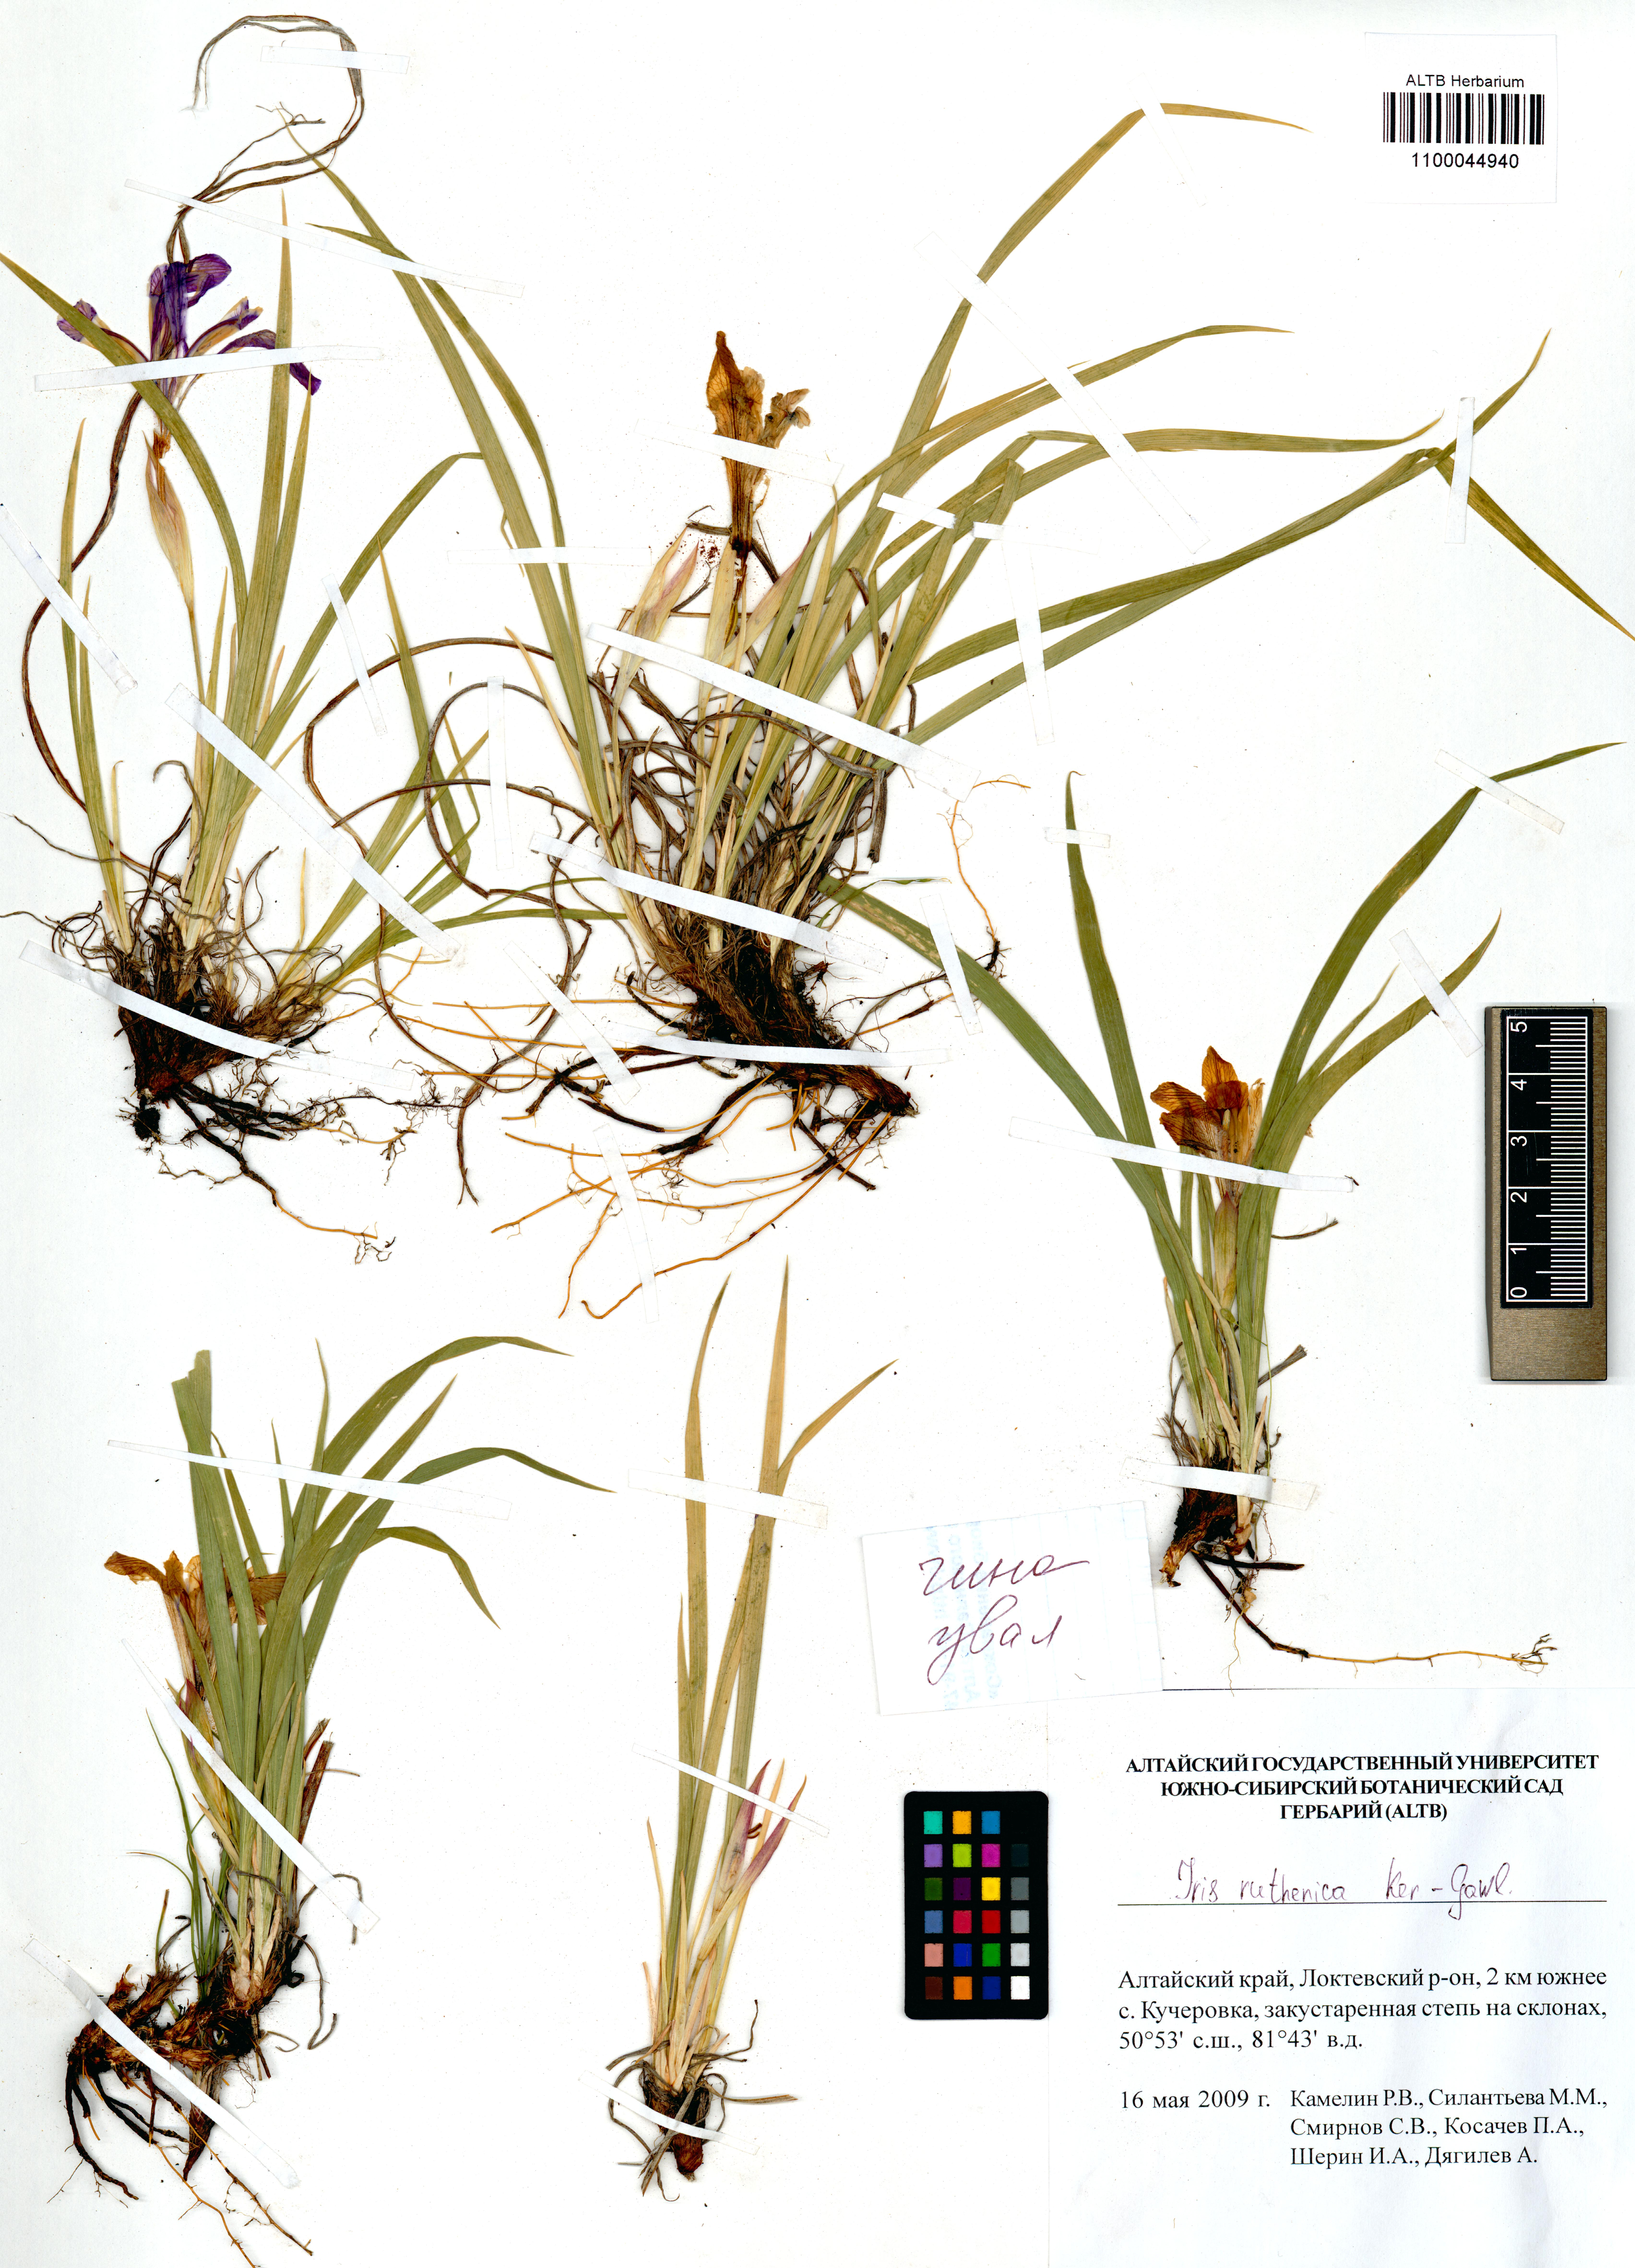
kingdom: Plantae
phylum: Tracheophyta
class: Liliopsida
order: Asparagales
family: Iridaceae
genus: Iris
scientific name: Iris ruthenica
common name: Purple-bract iris
